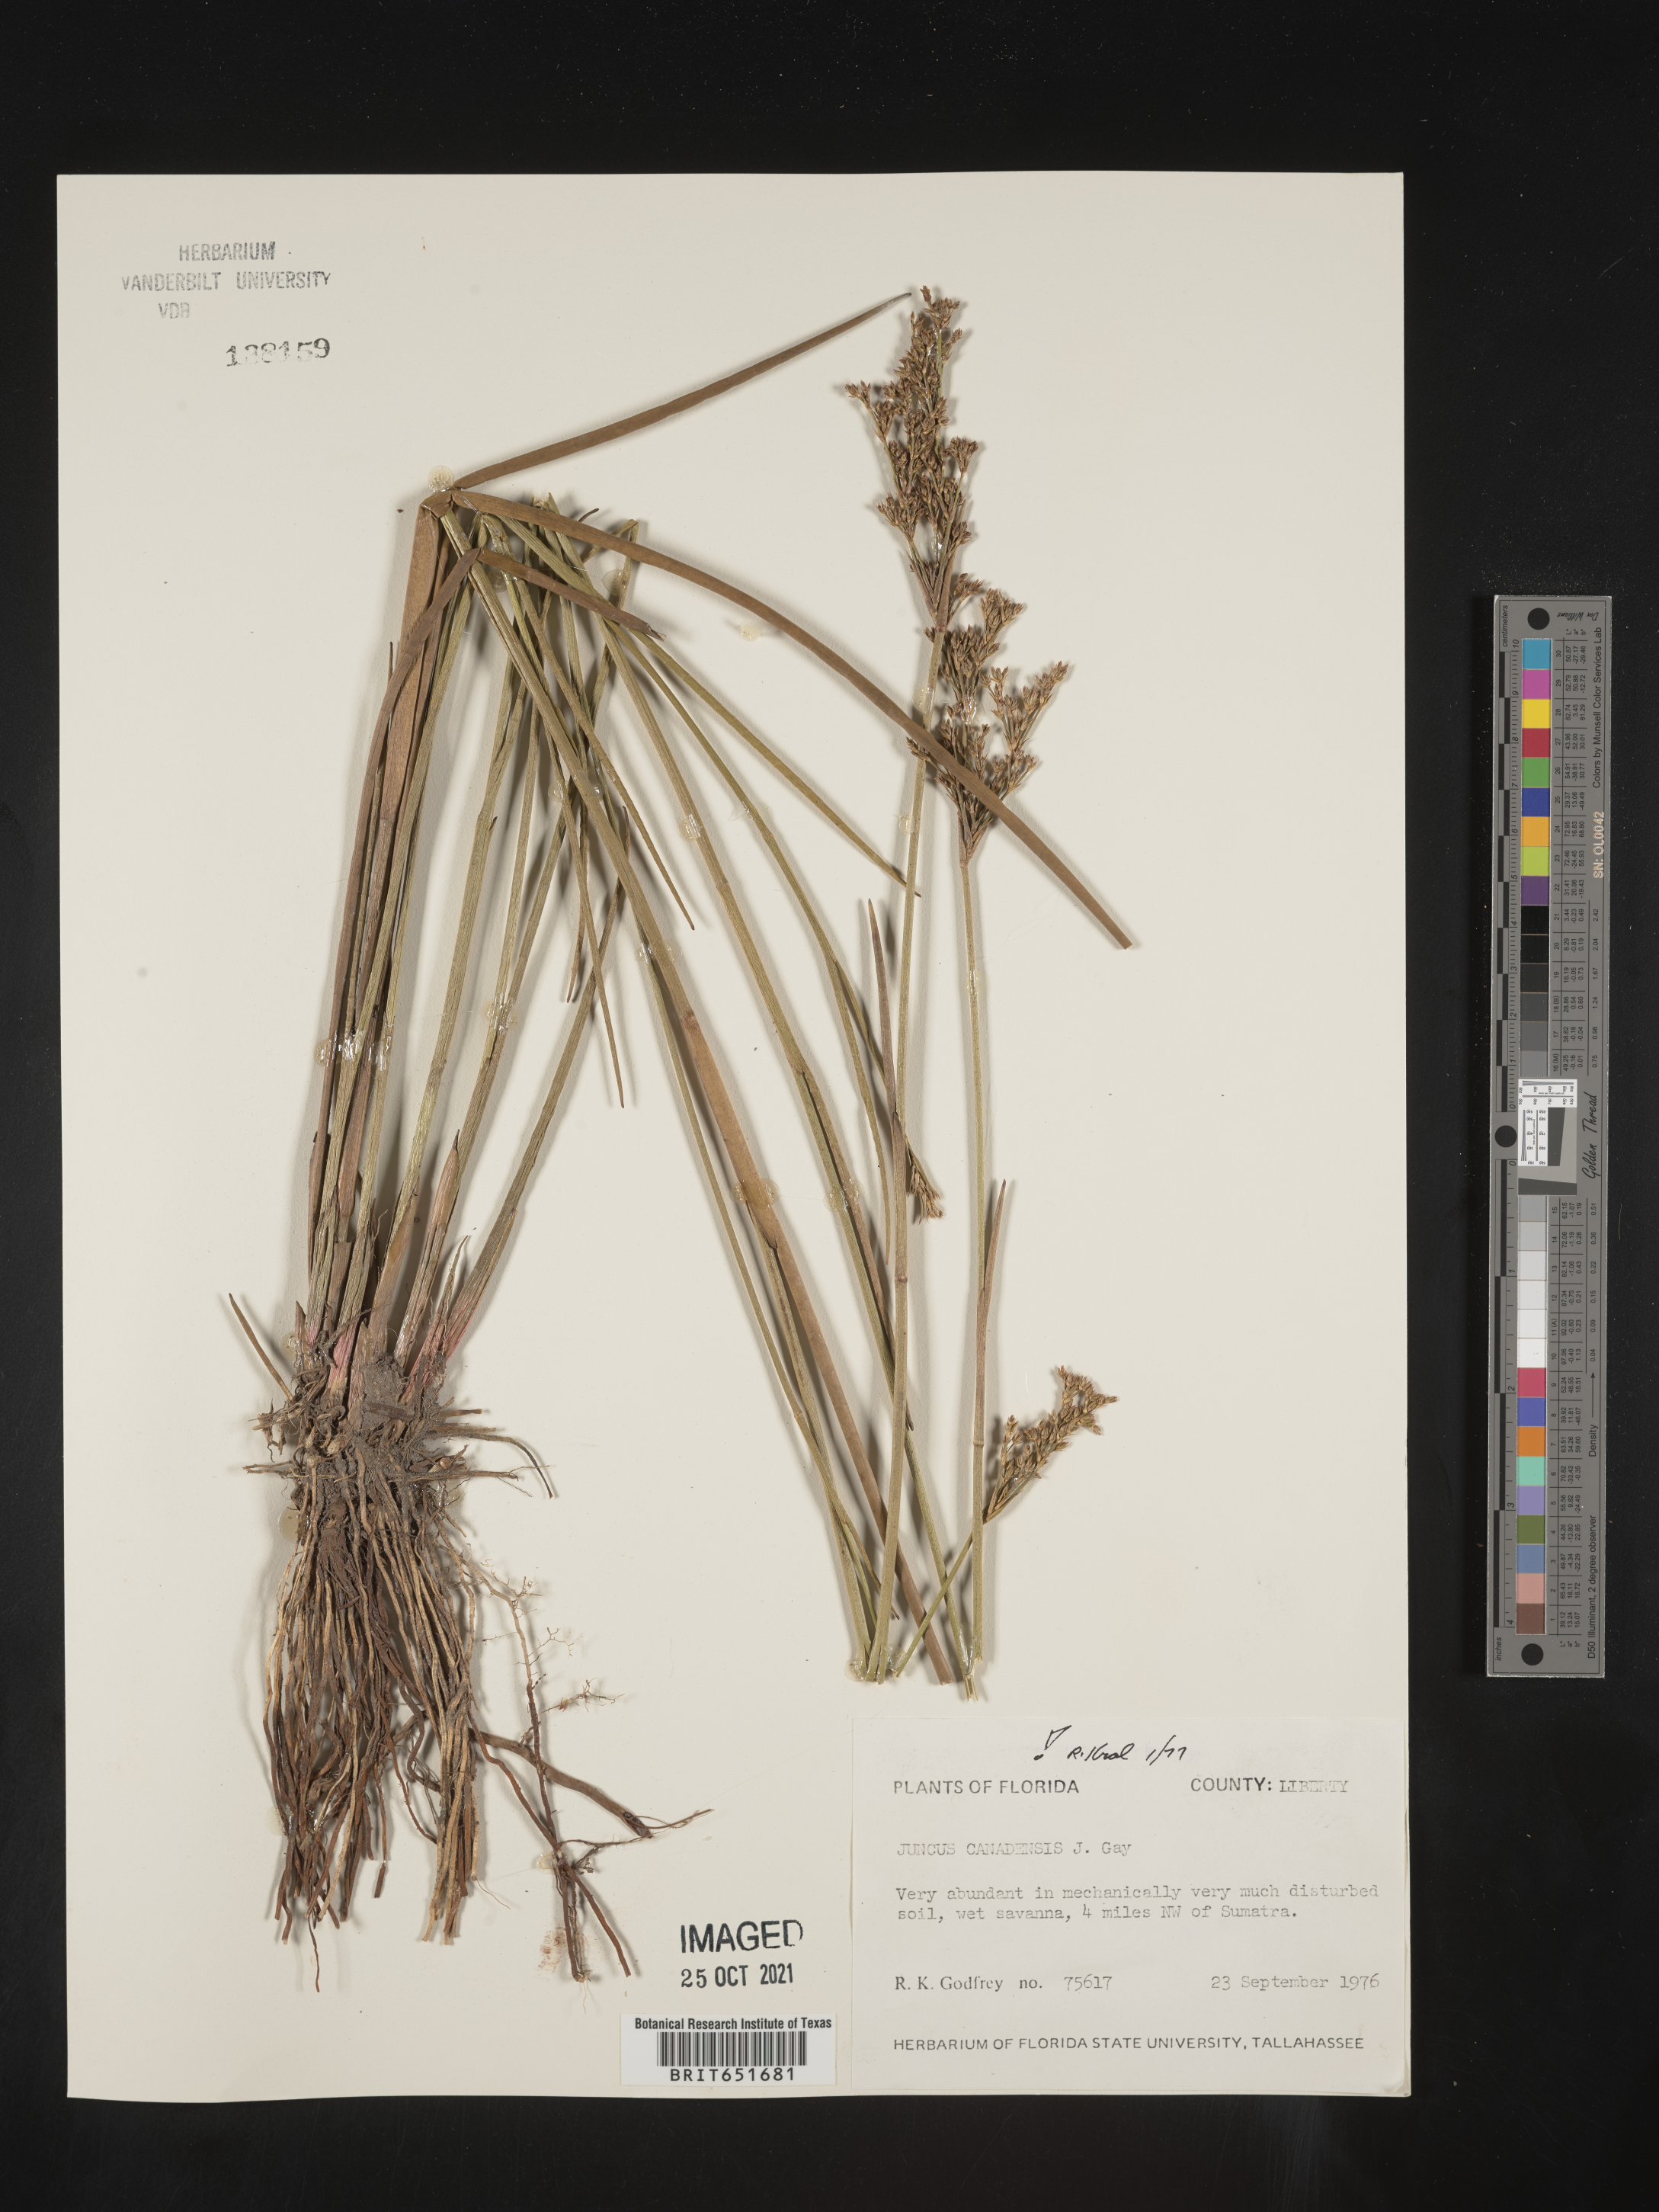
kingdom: Plantae
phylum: Tracheophyta
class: Liliopsida
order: Poales
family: Juncaceae
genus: Juncus
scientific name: Juncus canadensis
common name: Canada rush
